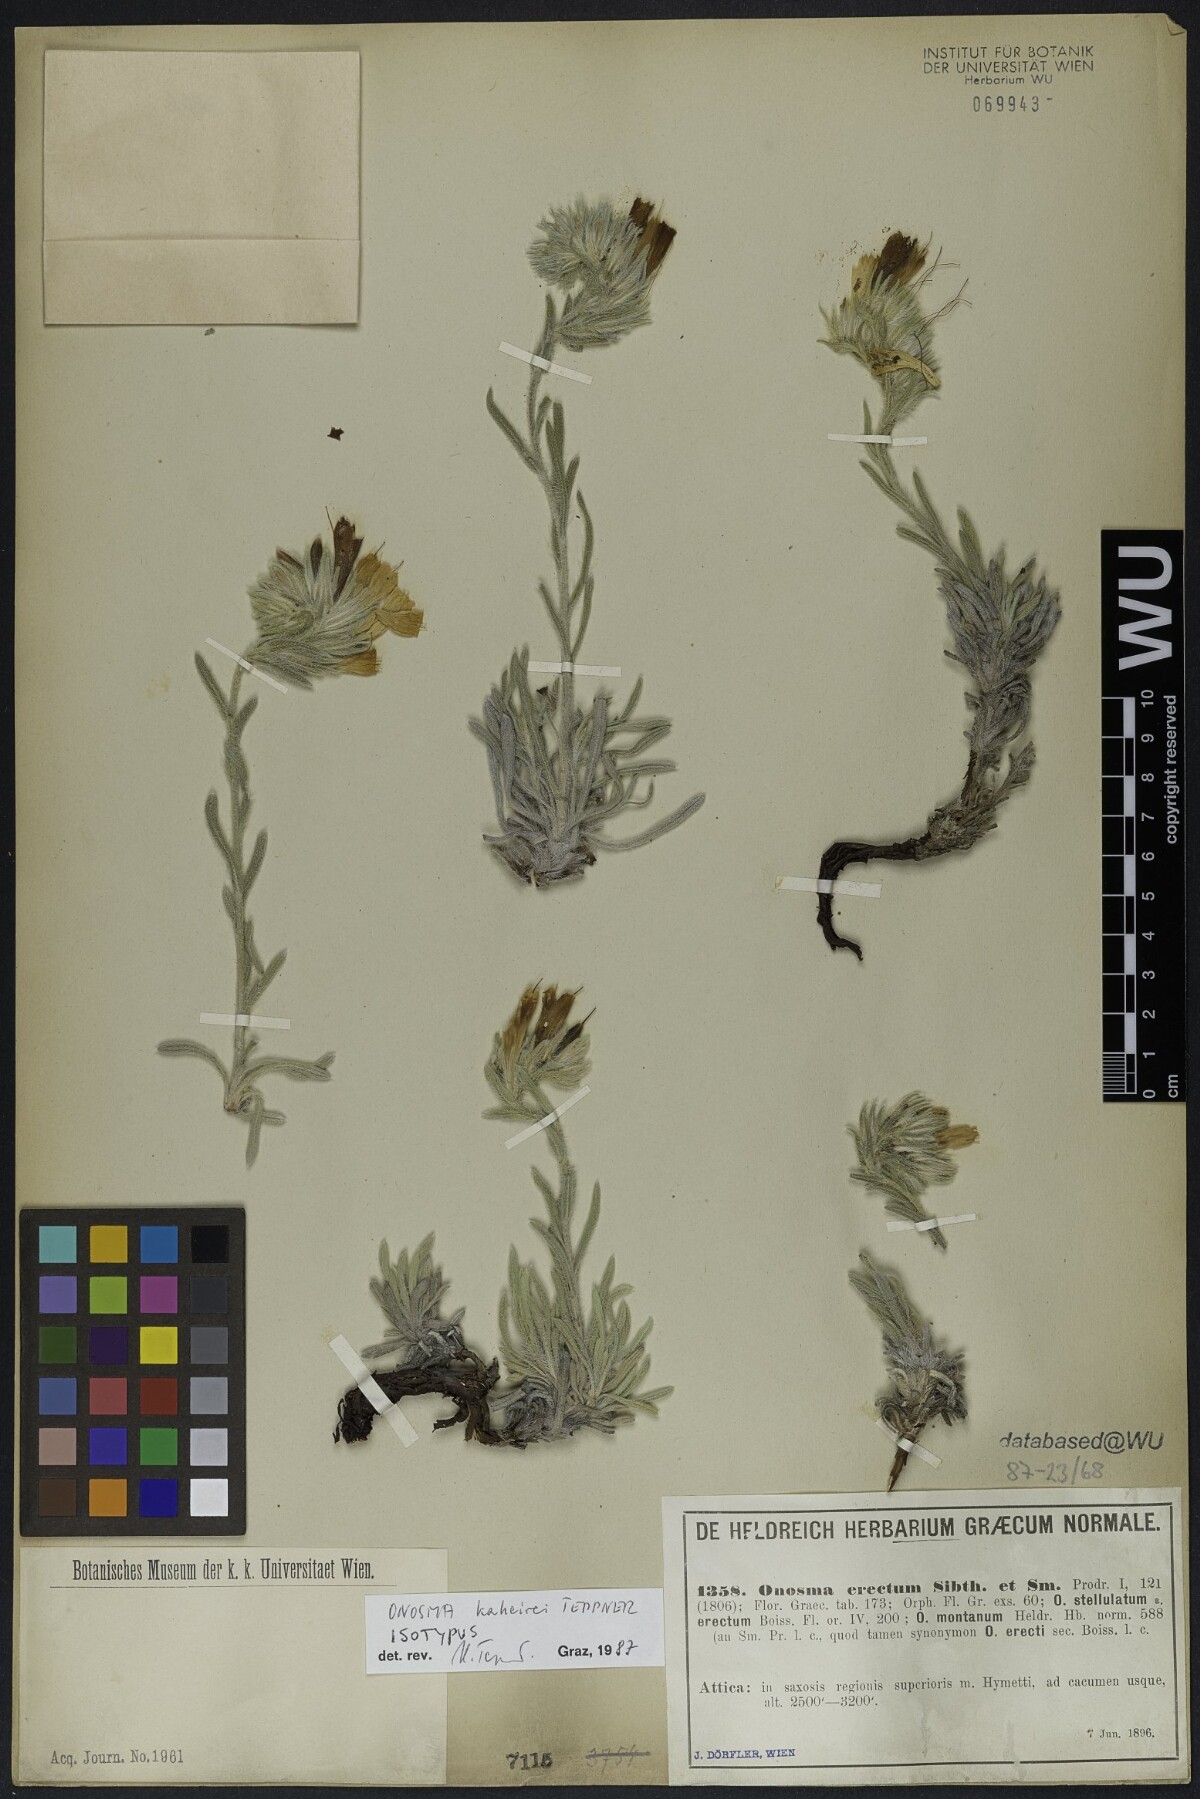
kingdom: Plantae
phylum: Tracheophyta
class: Magnoliopsida
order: Boraginales
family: Boraginaceae
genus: Onosma
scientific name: Onosma kaheirei
